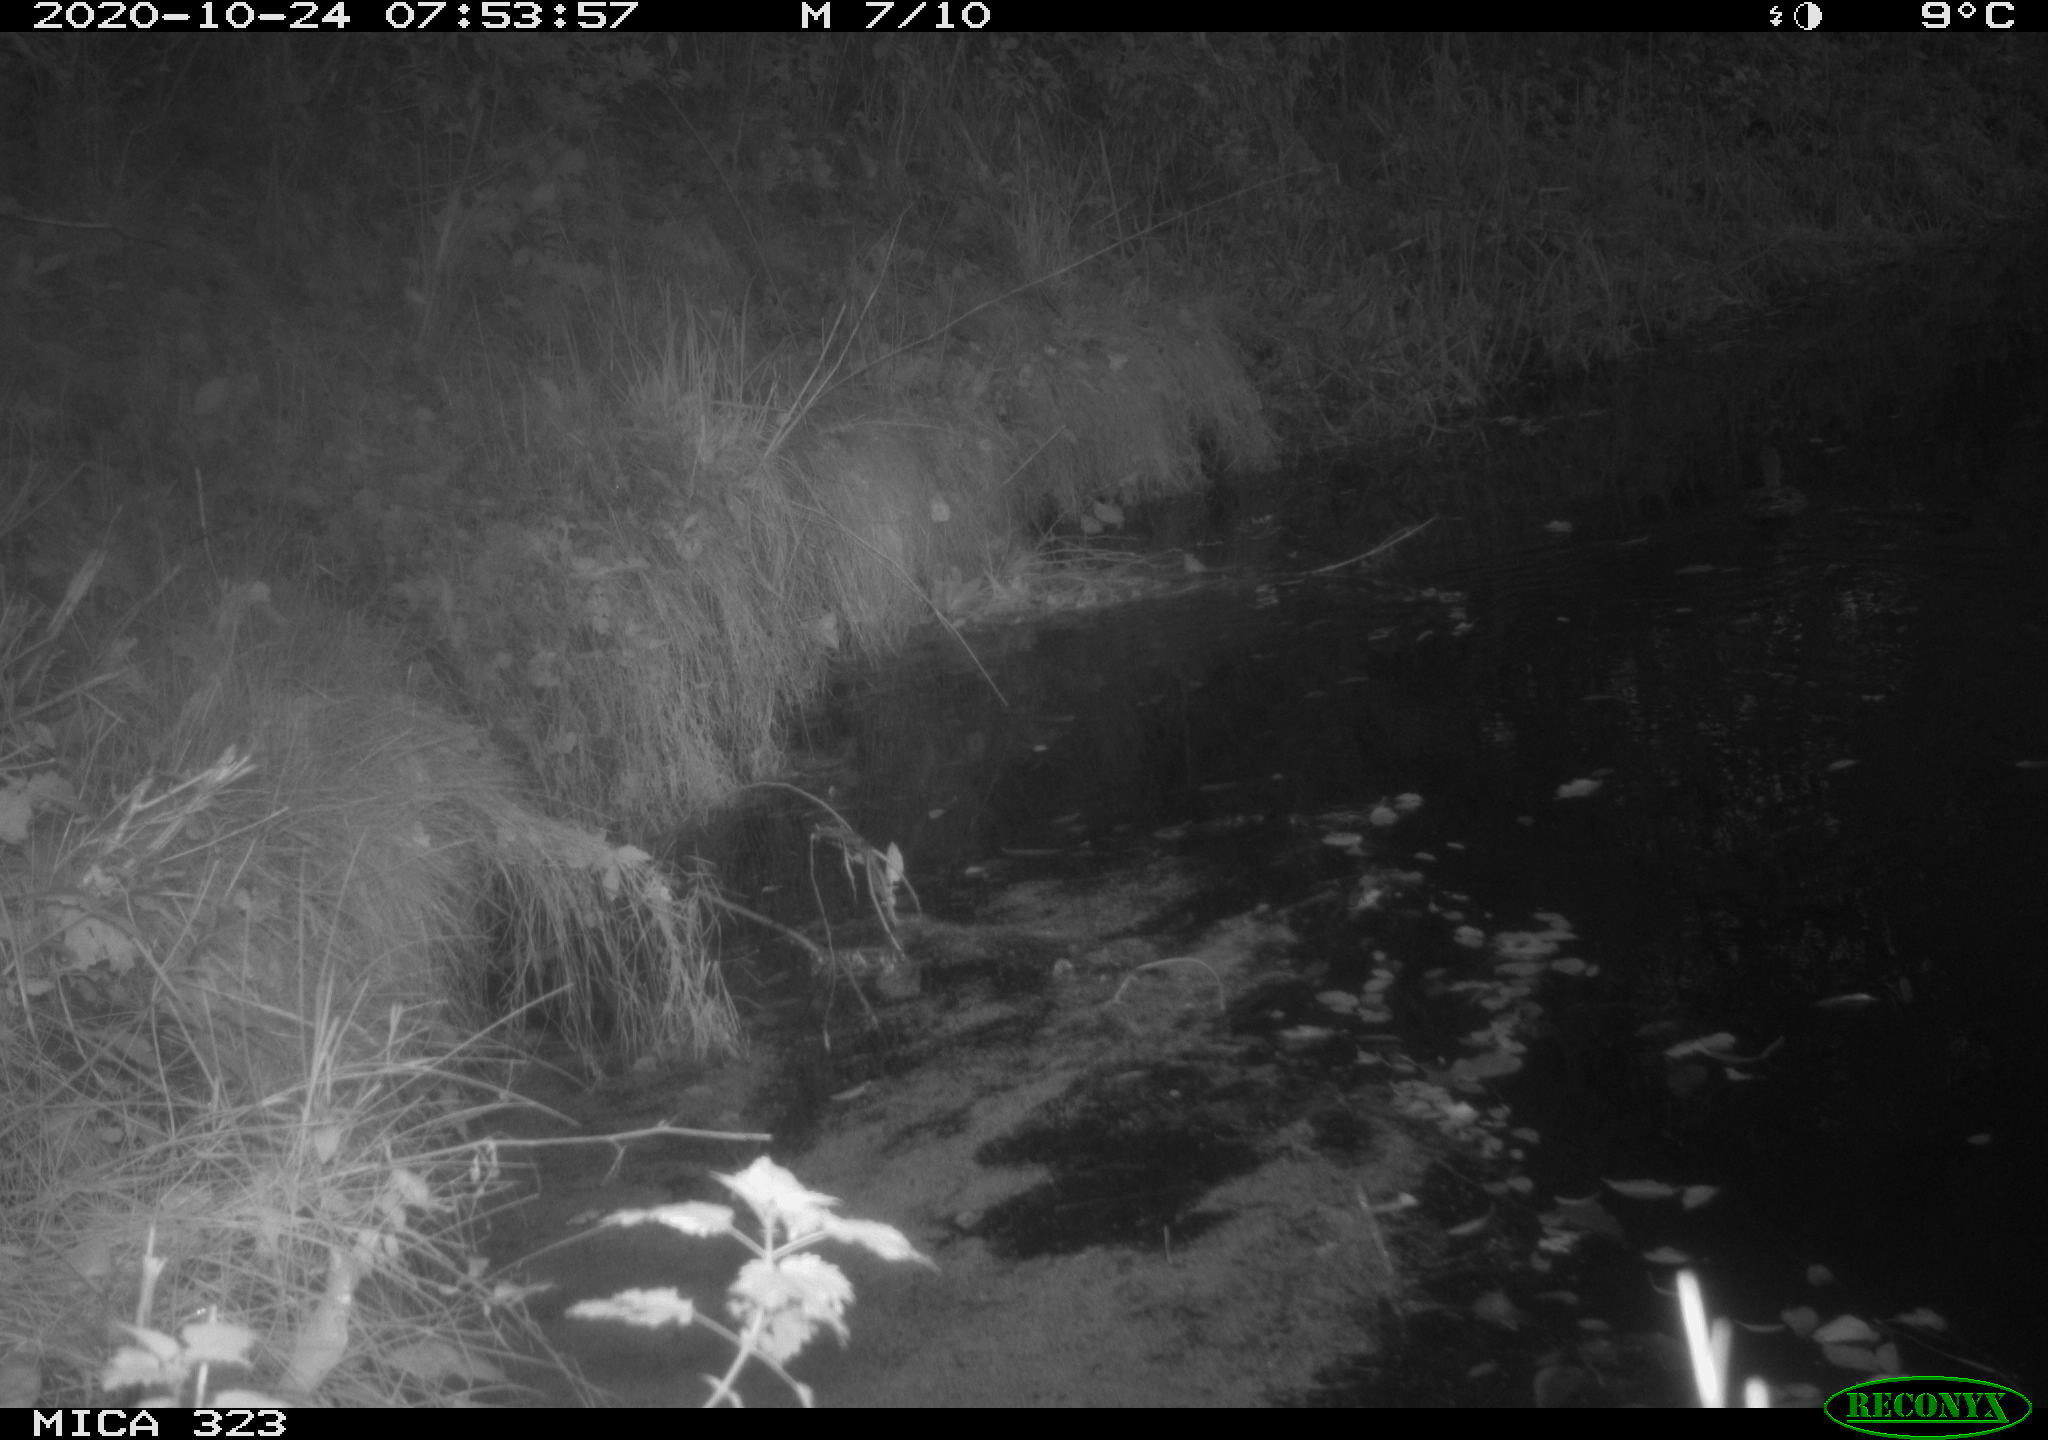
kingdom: Animalia
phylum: Chordata
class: Aves
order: Anseriformes
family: Anatidae
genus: Anas
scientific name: Anas platyrhynchos
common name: Mallard
